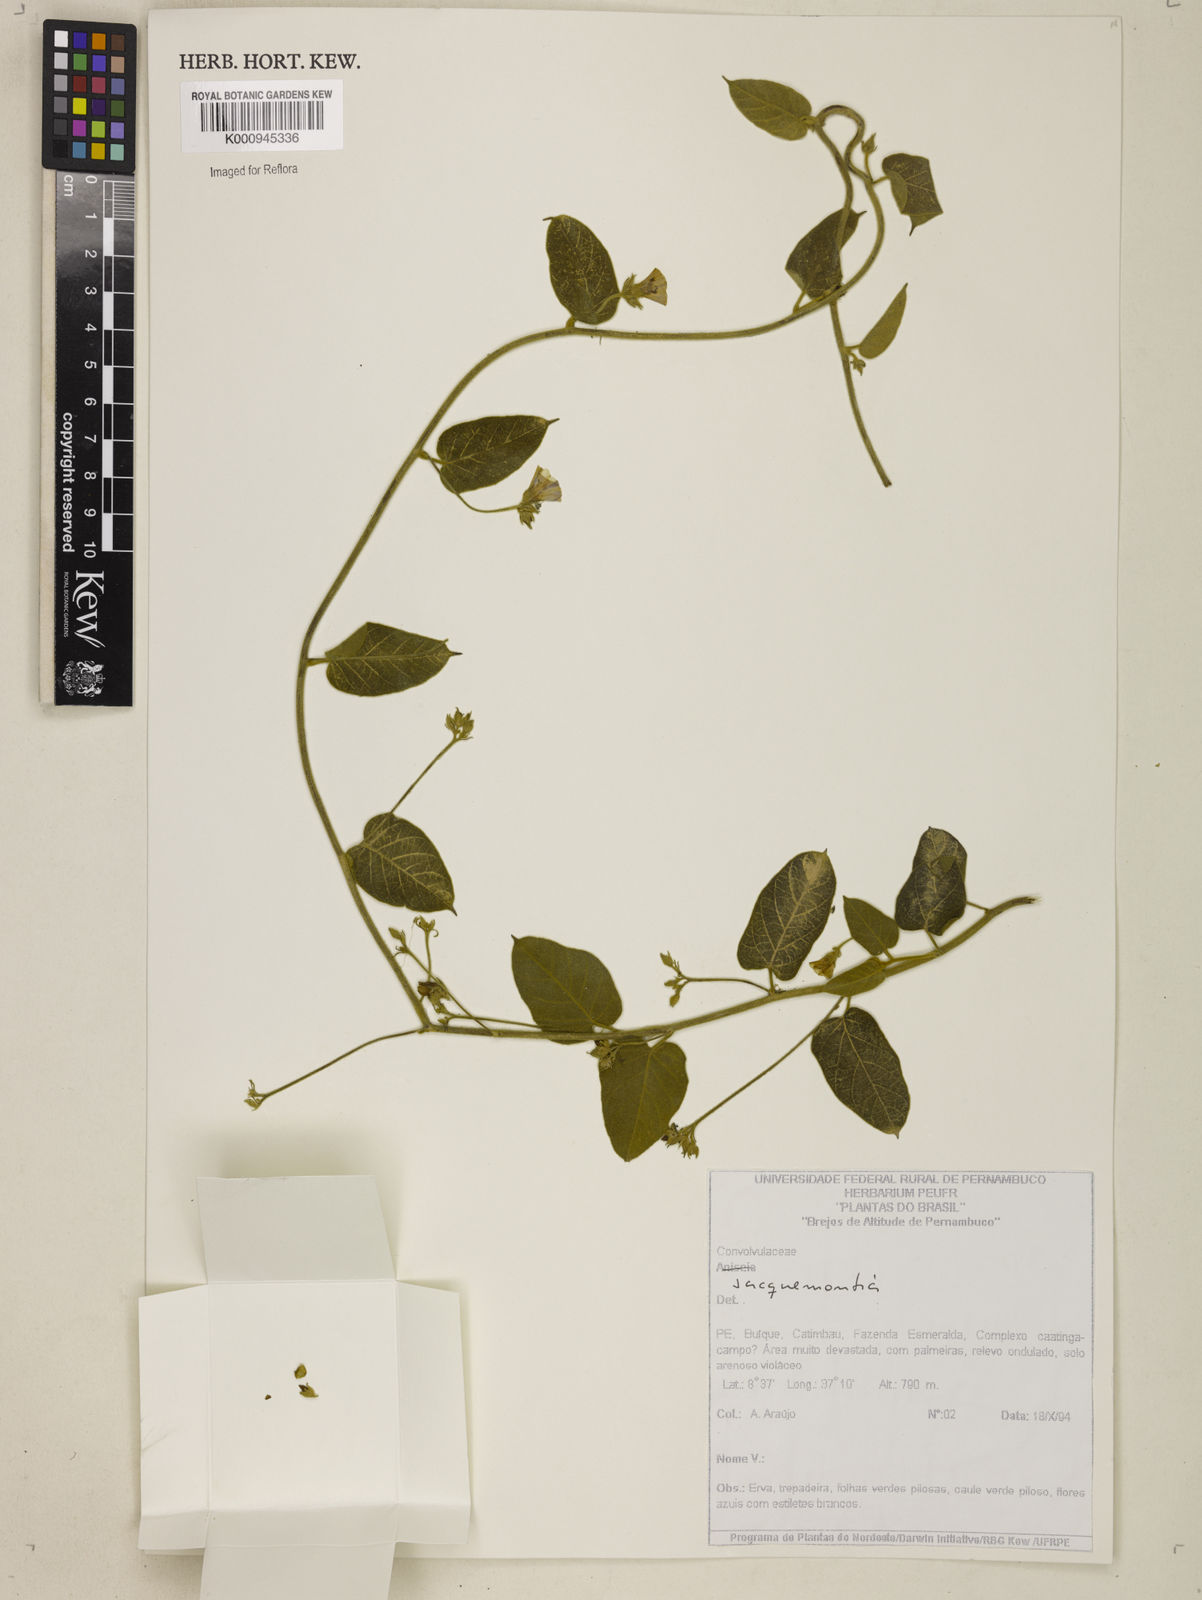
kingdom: Plantae
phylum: Tracheophyta
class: Magnoliopsida
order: Solanales
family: Convolvulaceae
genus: Jacquemontia
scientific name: Jacquemontia
